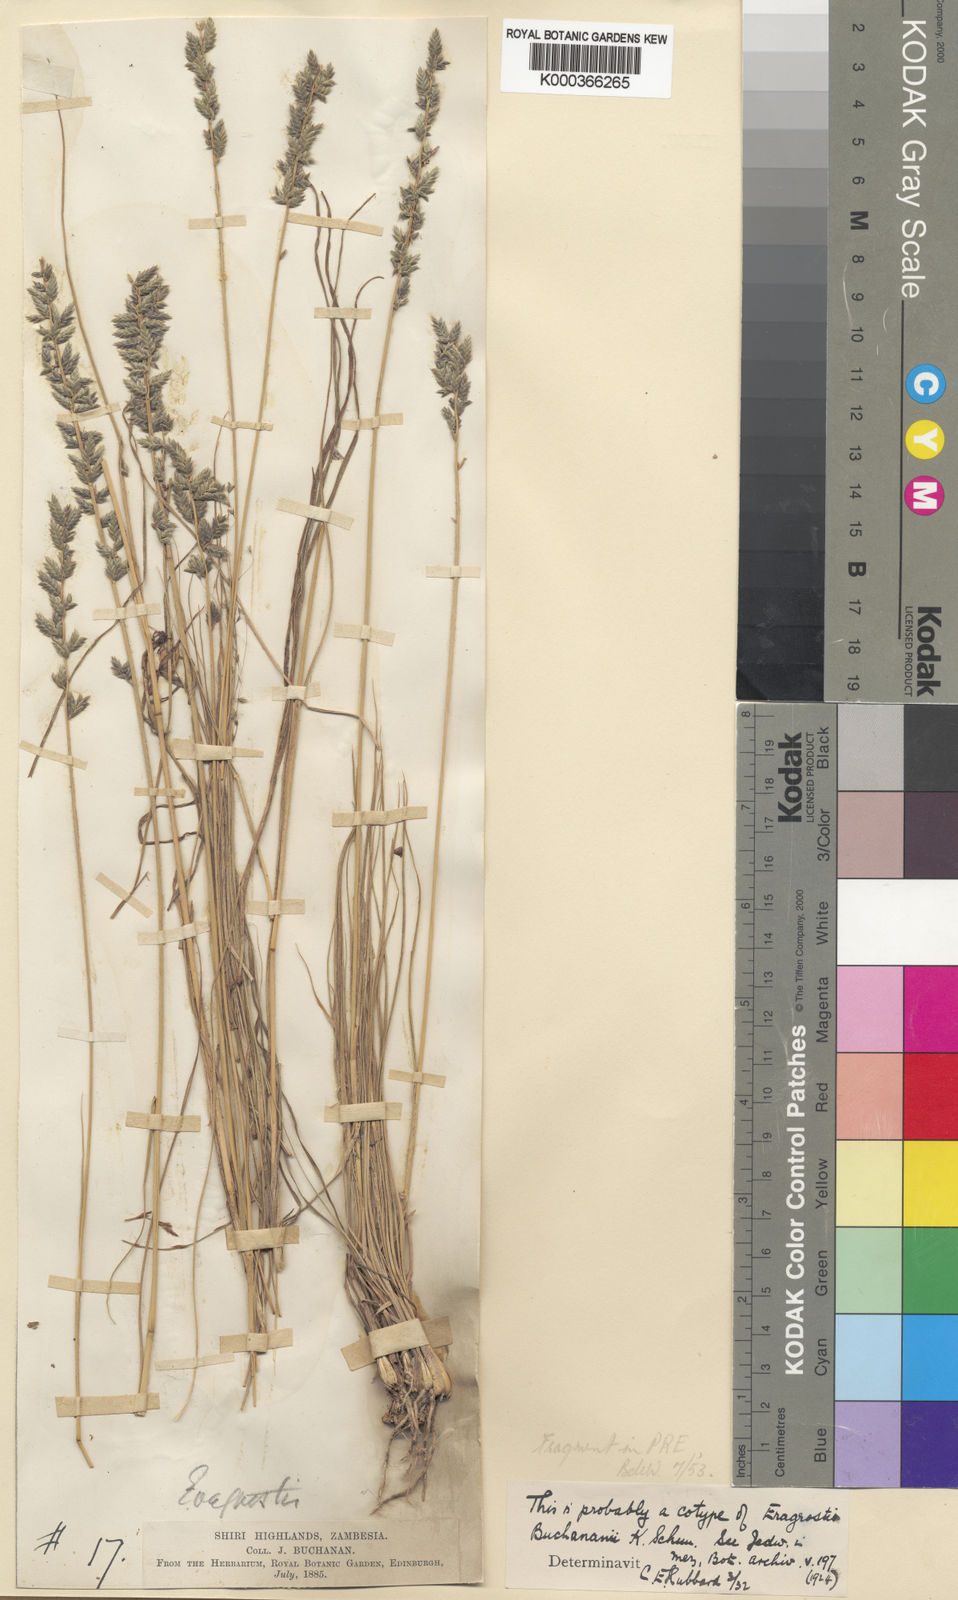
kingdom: Plantae
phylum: Tracheophyta
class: Liliopsida
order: Poales
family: Poaceae
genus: Eragrostis
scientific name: Eragrostis nindensis
